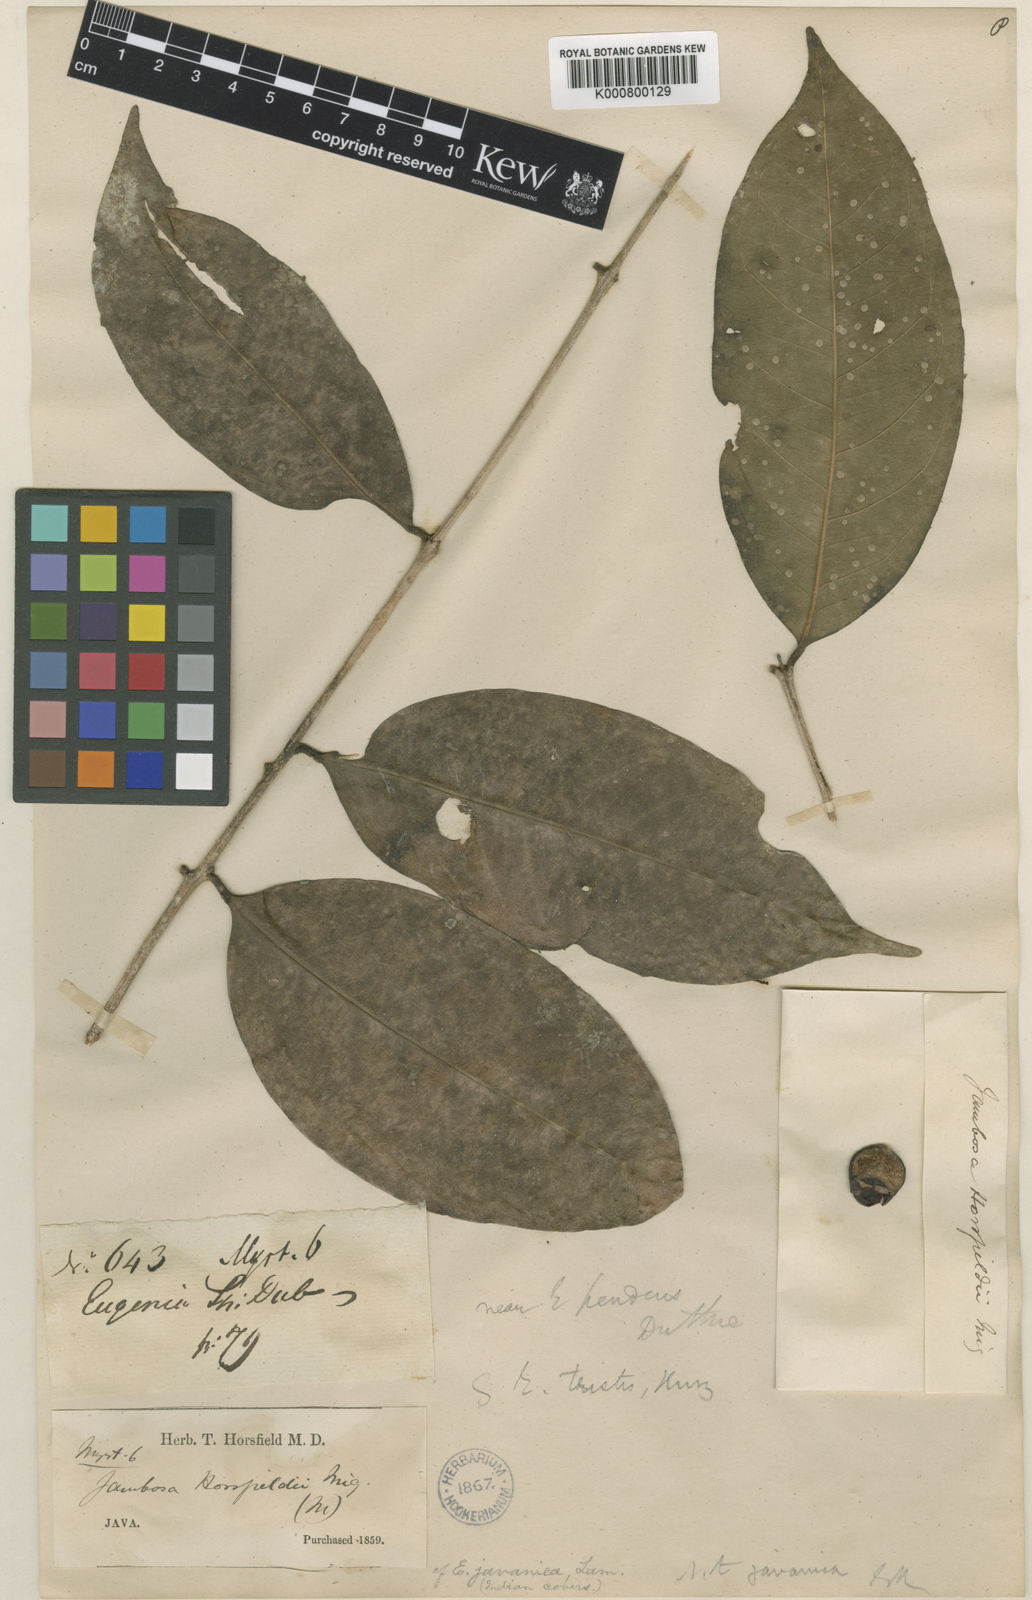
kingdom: Plantae
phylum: Tracheophyta
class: Magnoliopsida
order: Myrtales
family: Myrtaceae
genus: Syzygium
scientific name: Syzygium horsfieldii
